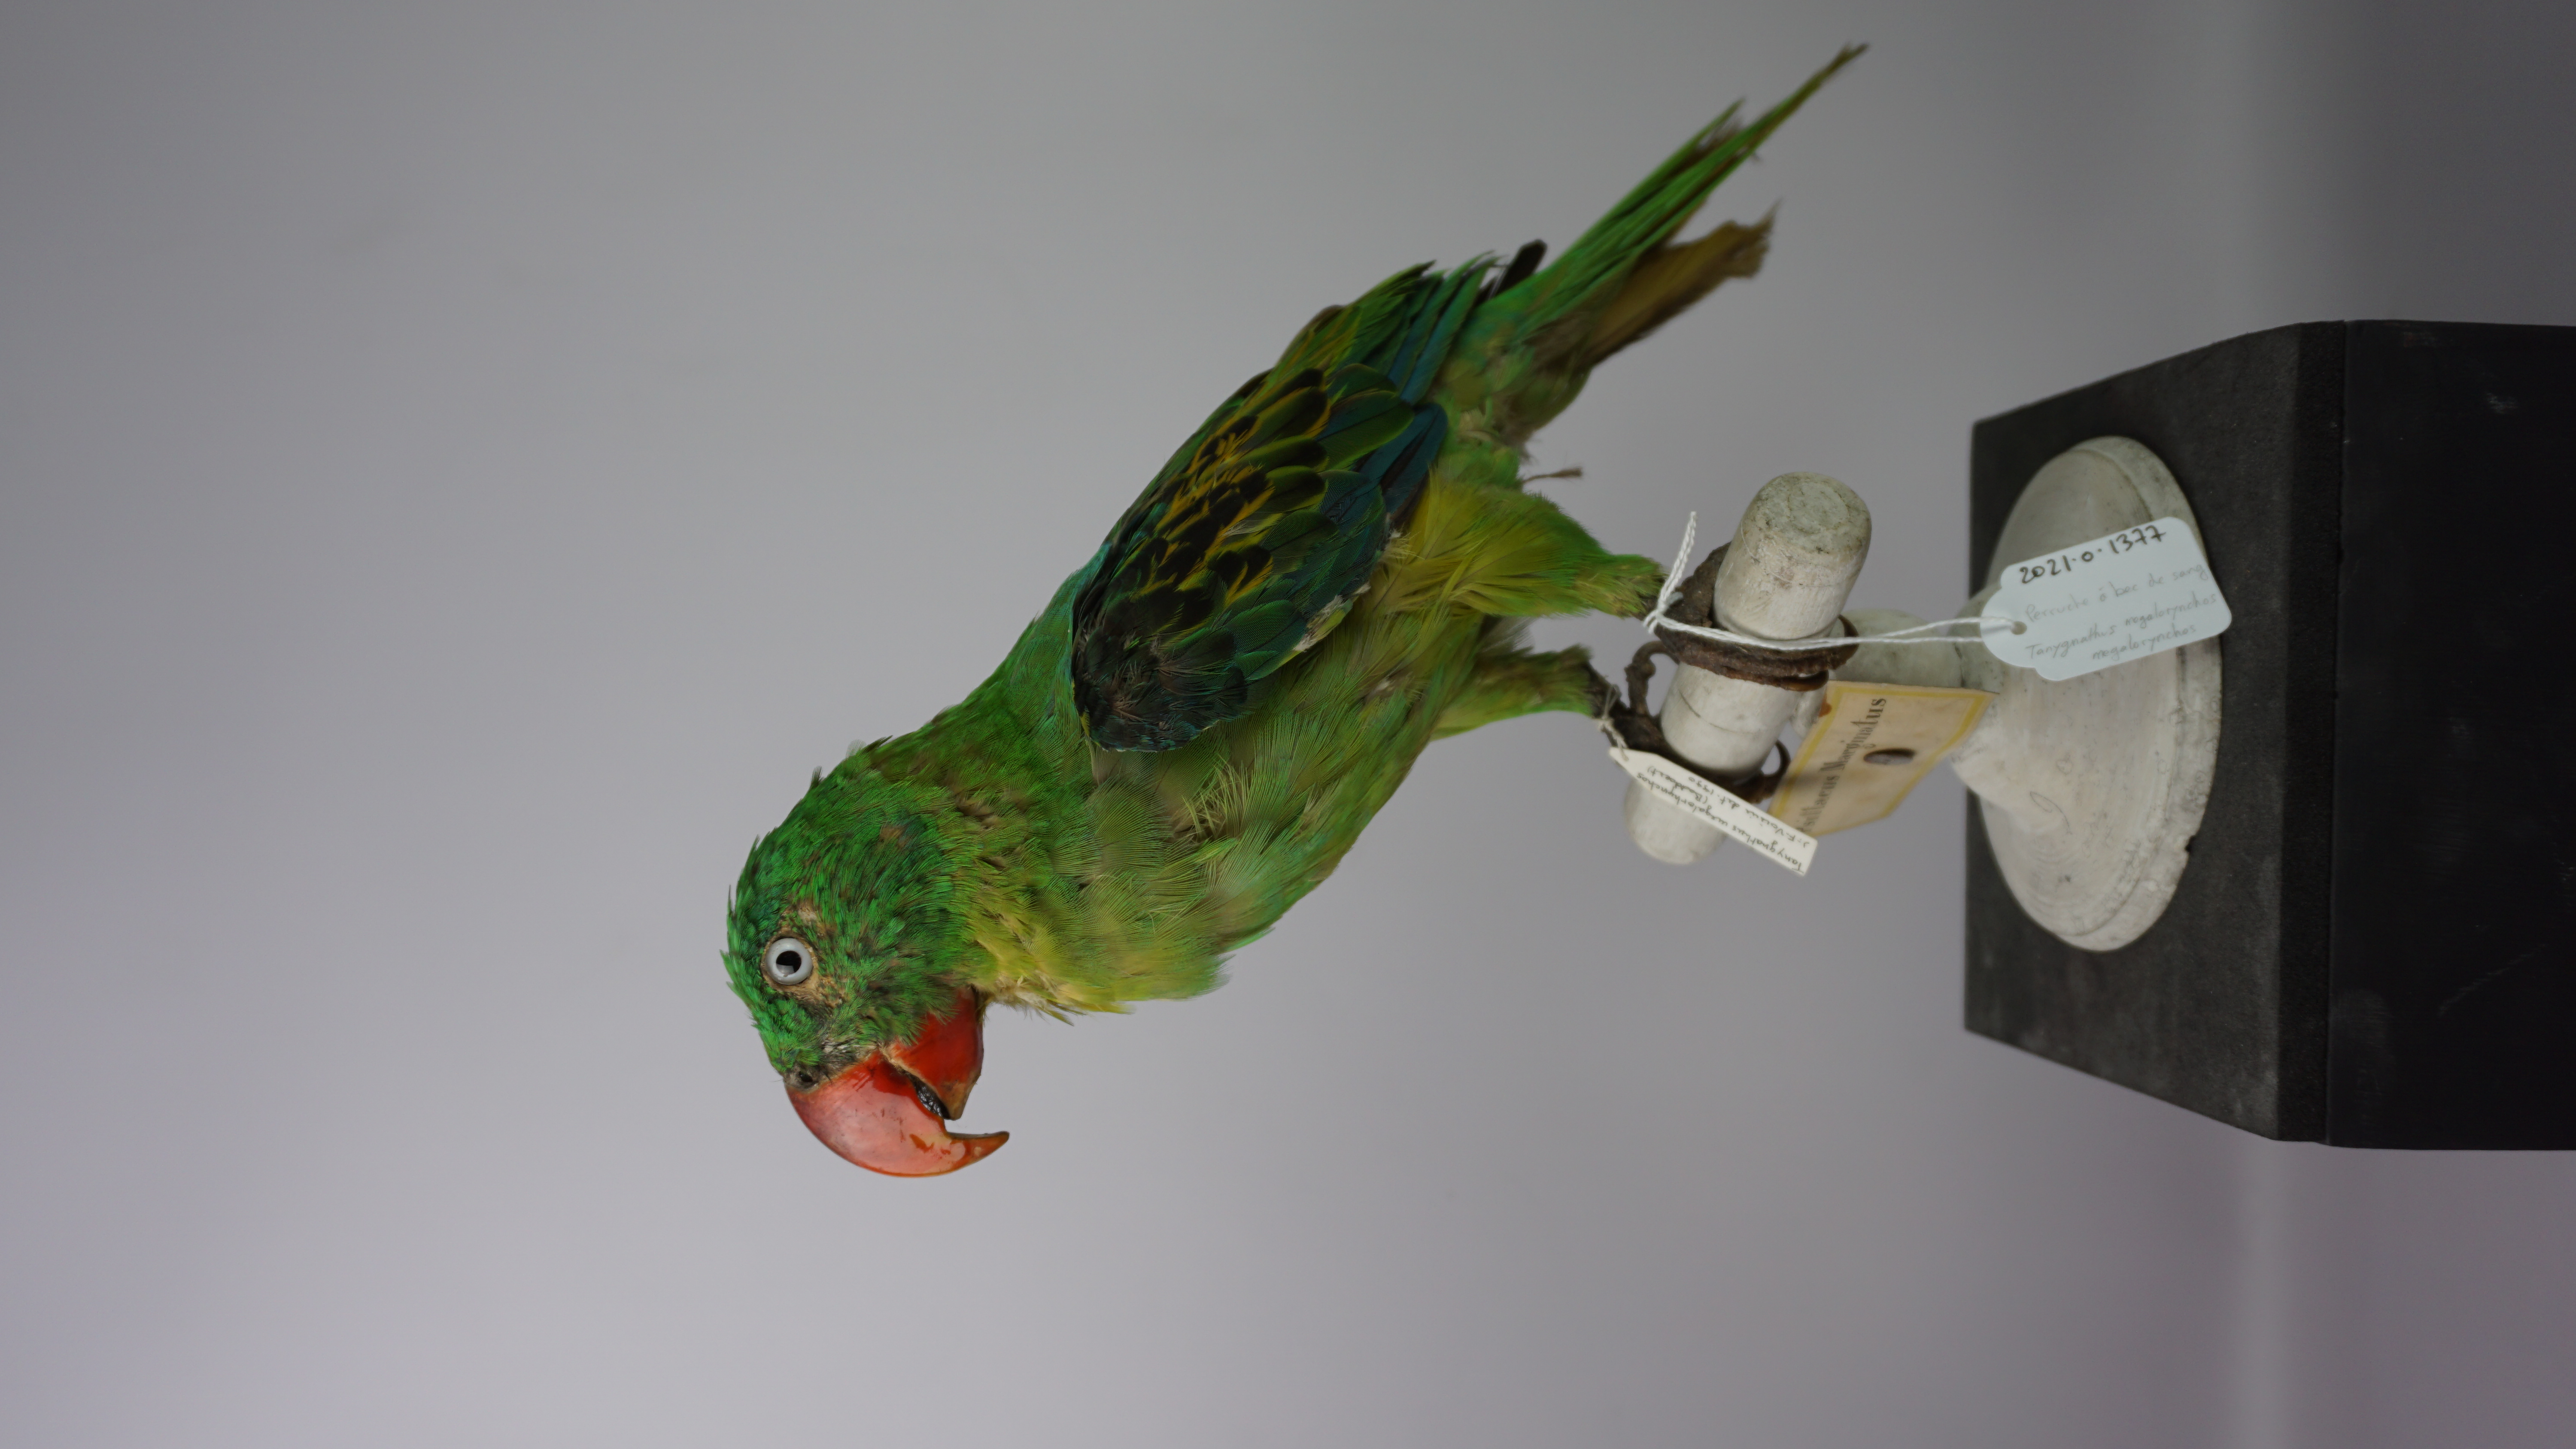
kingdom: Animalia
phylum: Chordata
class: Aves
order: Psittaciformes
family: Psittacidae
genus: Tanygnathus
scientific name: Tanygnathus megalorynchos
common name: Great-billed parrot
